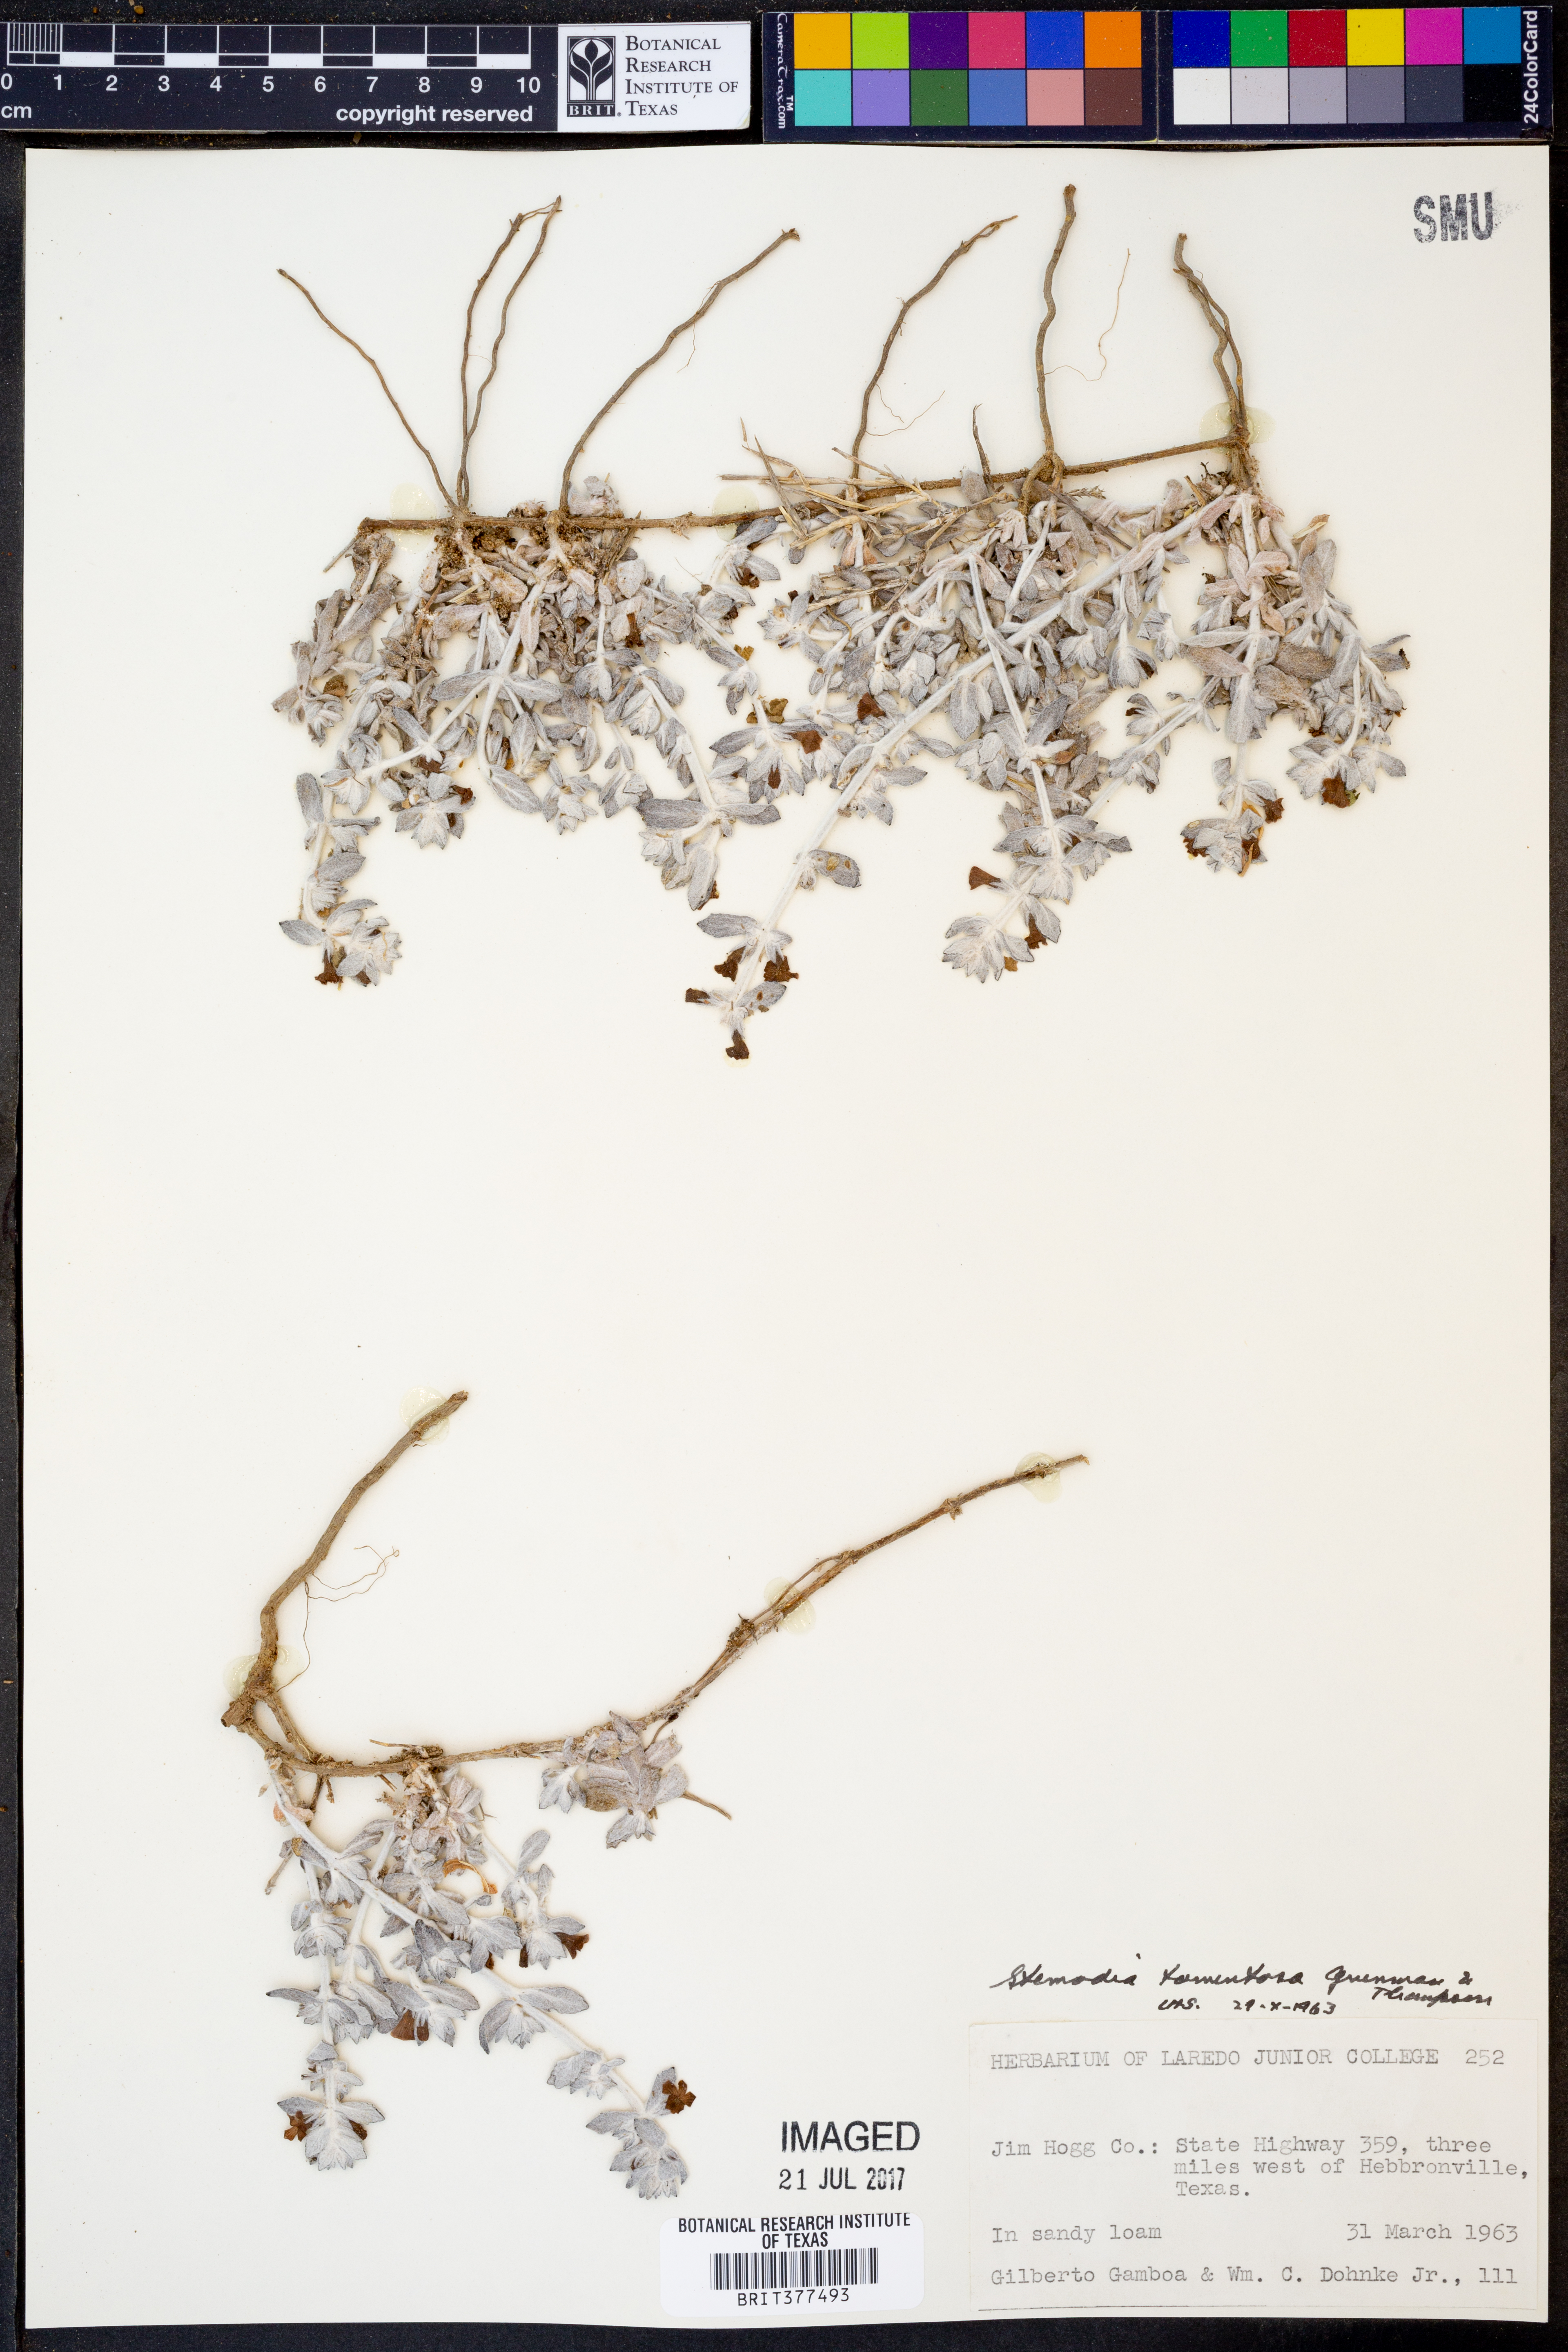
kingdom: Plantae
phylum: Tracheophyta
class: Magnoliopsida
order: Lamiales
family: Plantaginaceae
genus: Stemodia
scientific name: Stemodia lanata
